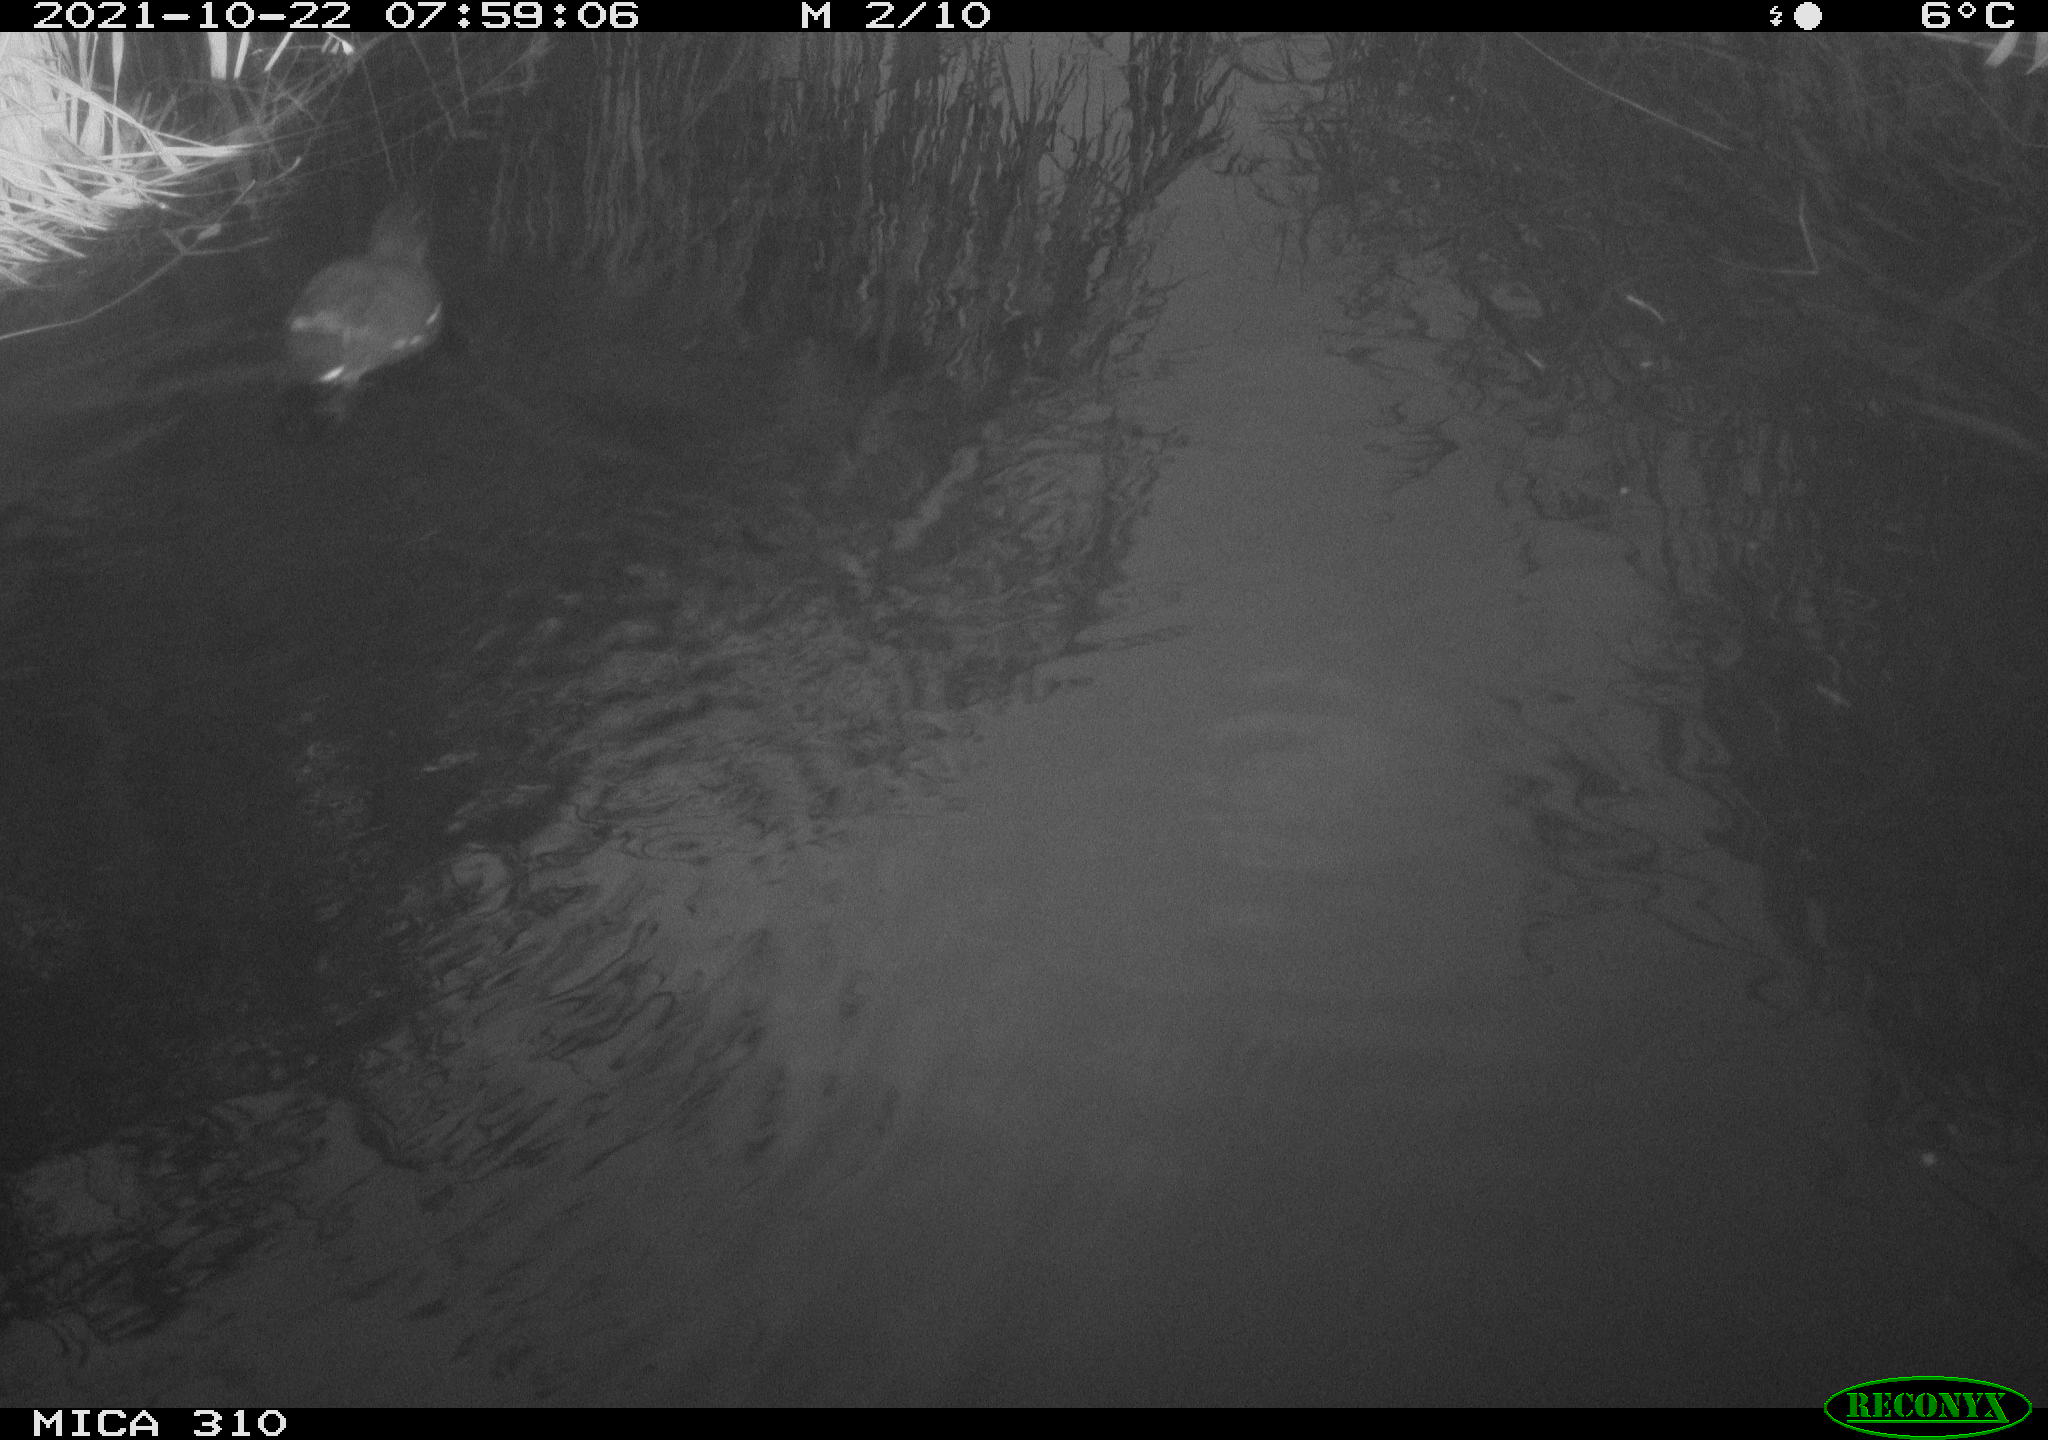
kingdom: Animalia
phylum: Chordata
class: Aves
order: Gruiformes
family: Rallidae
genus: Gallinula
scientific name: Gallinula chloropus
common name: Common moorhen
